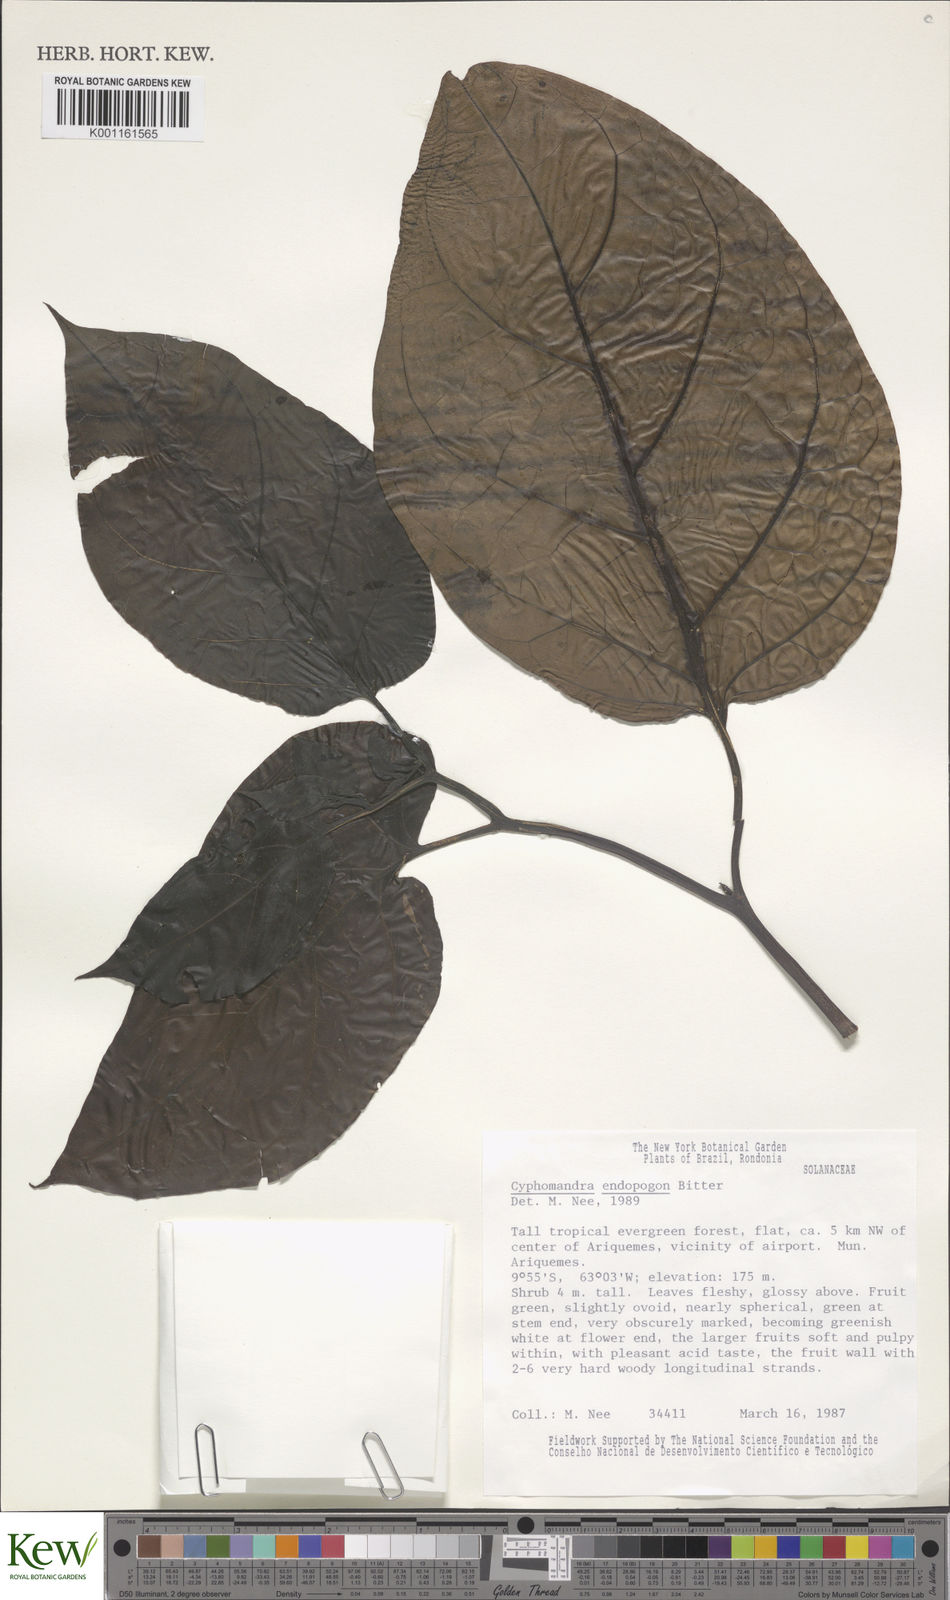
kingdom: Plantae
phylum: Tracheophyta
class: Magnoliopsida
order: Solanales
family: Solanaceae
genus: Solanum
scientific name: Solanum endopogon
